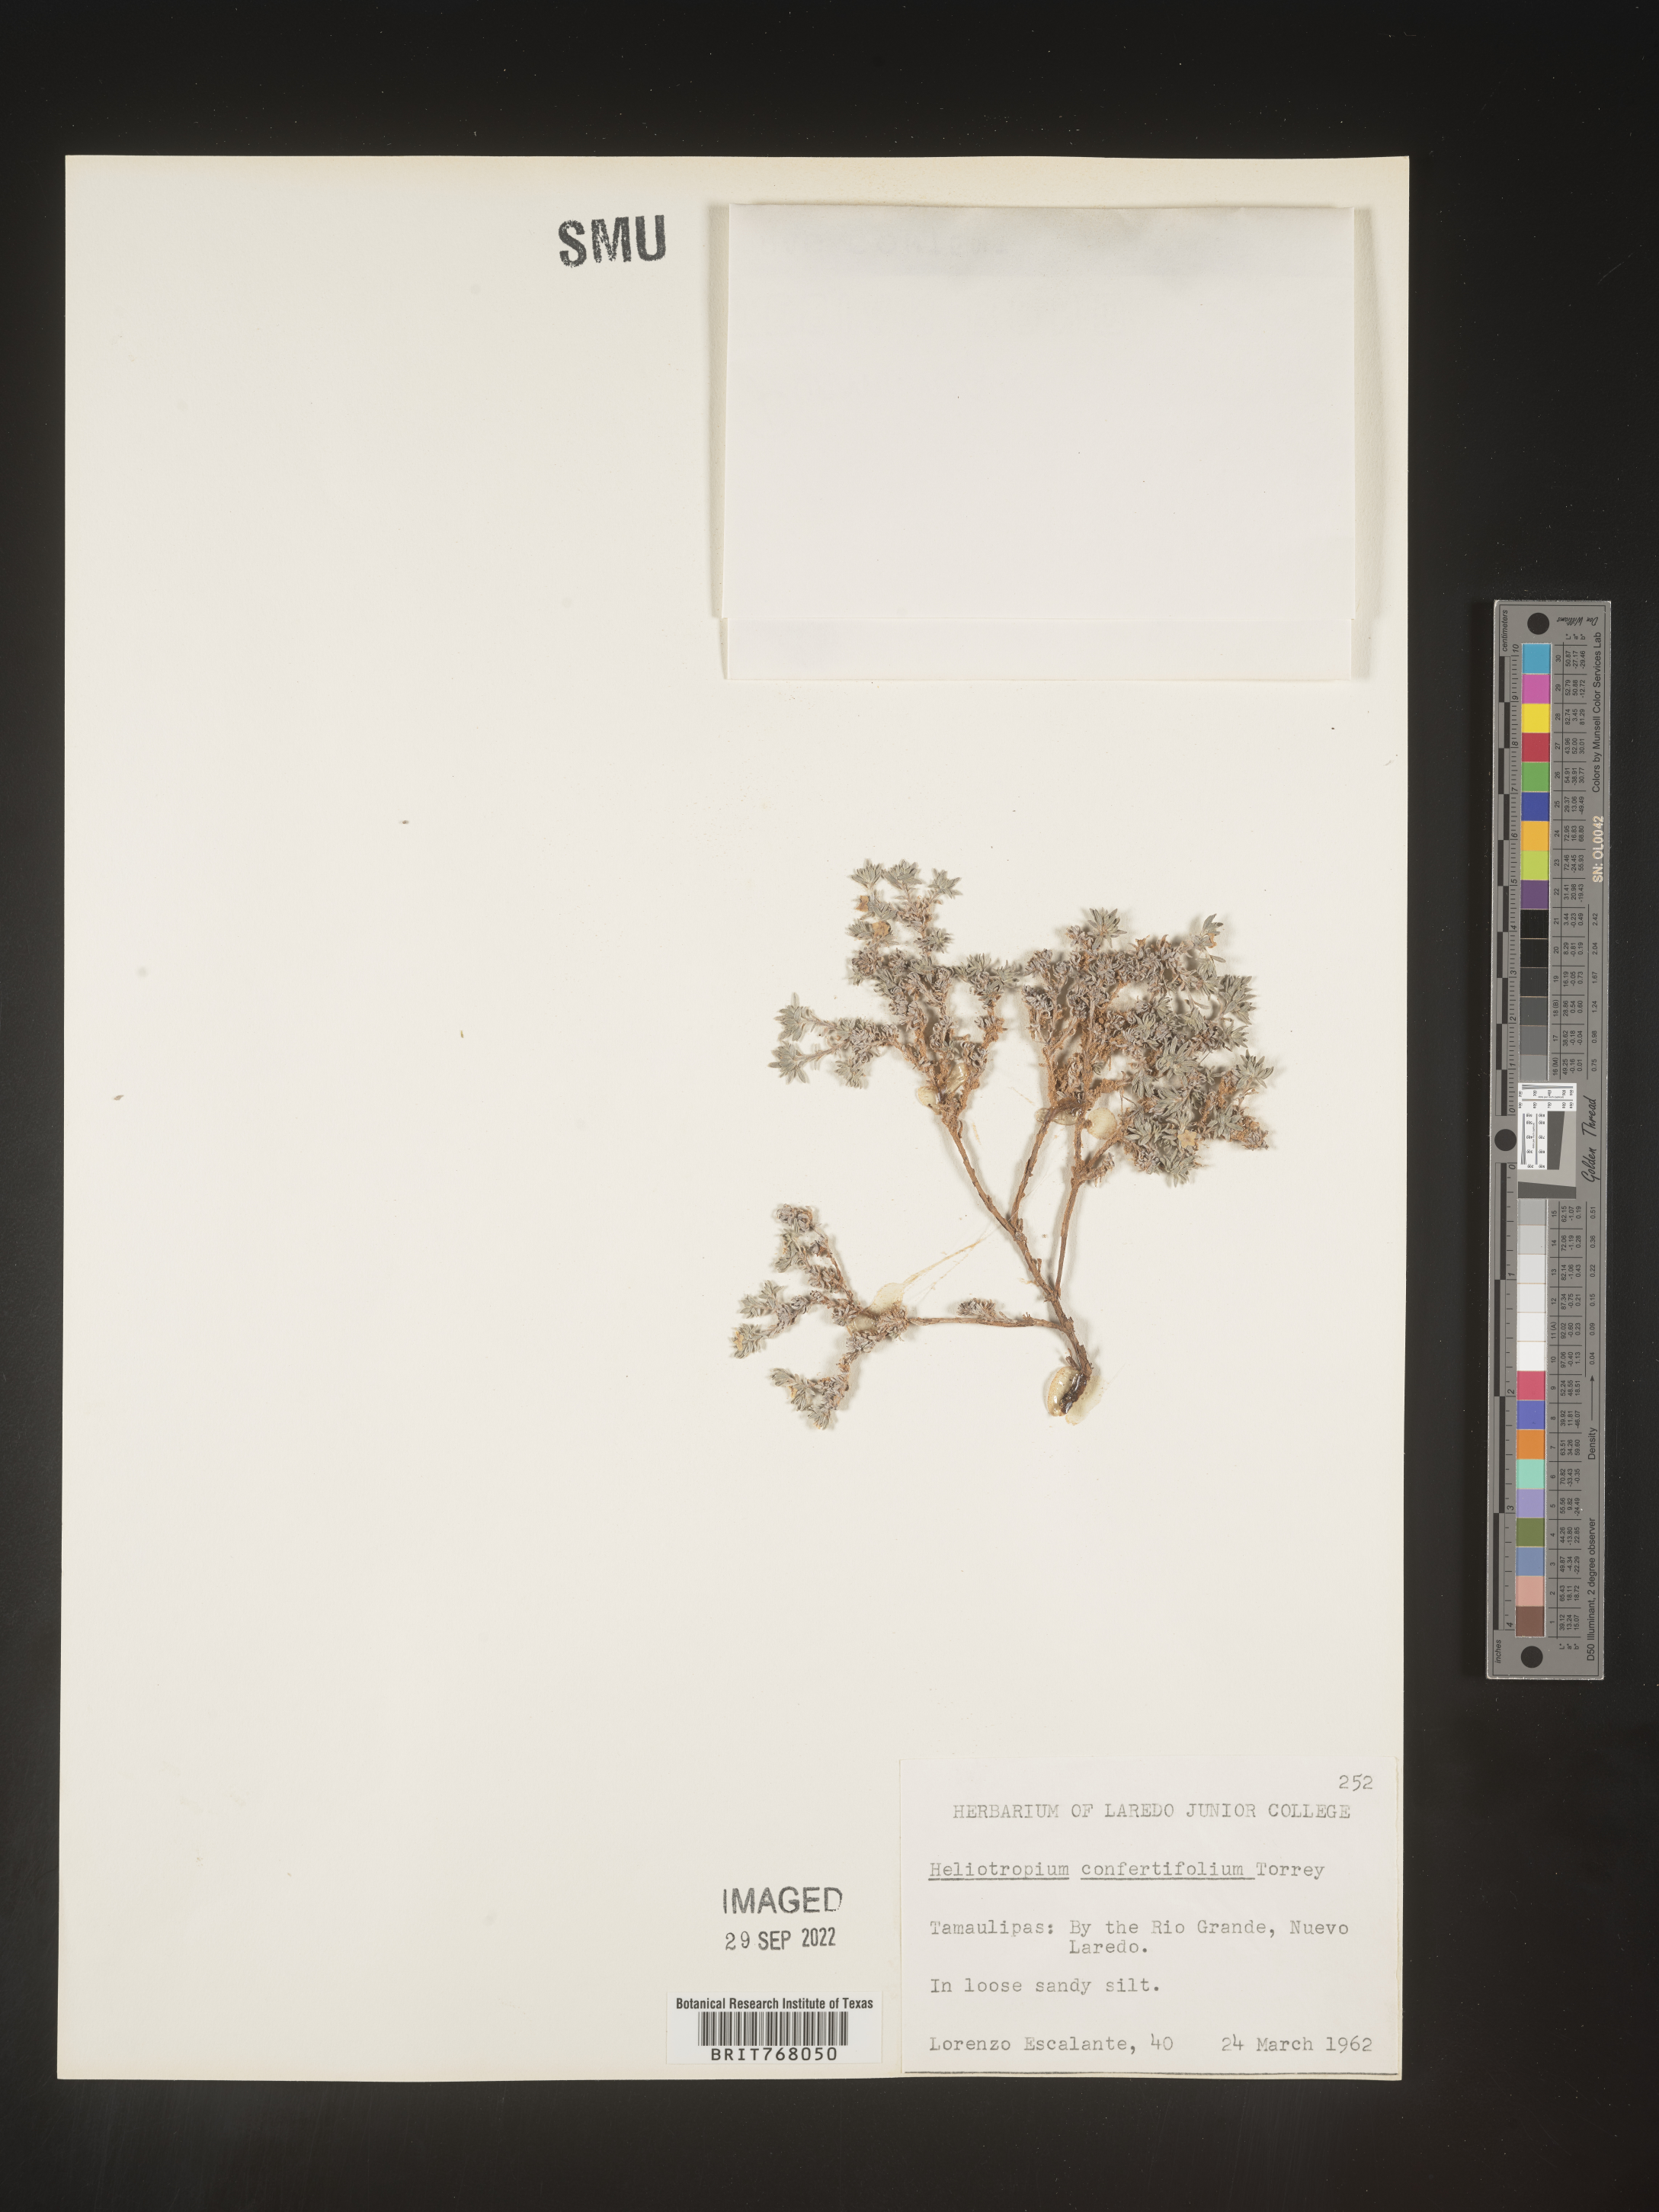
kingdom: Plantae
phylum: Tracheophyta
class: Magnoliopsida
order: Boraginales
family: Heliotropiaceae
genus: Heliotropium
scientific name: Heliotropium
